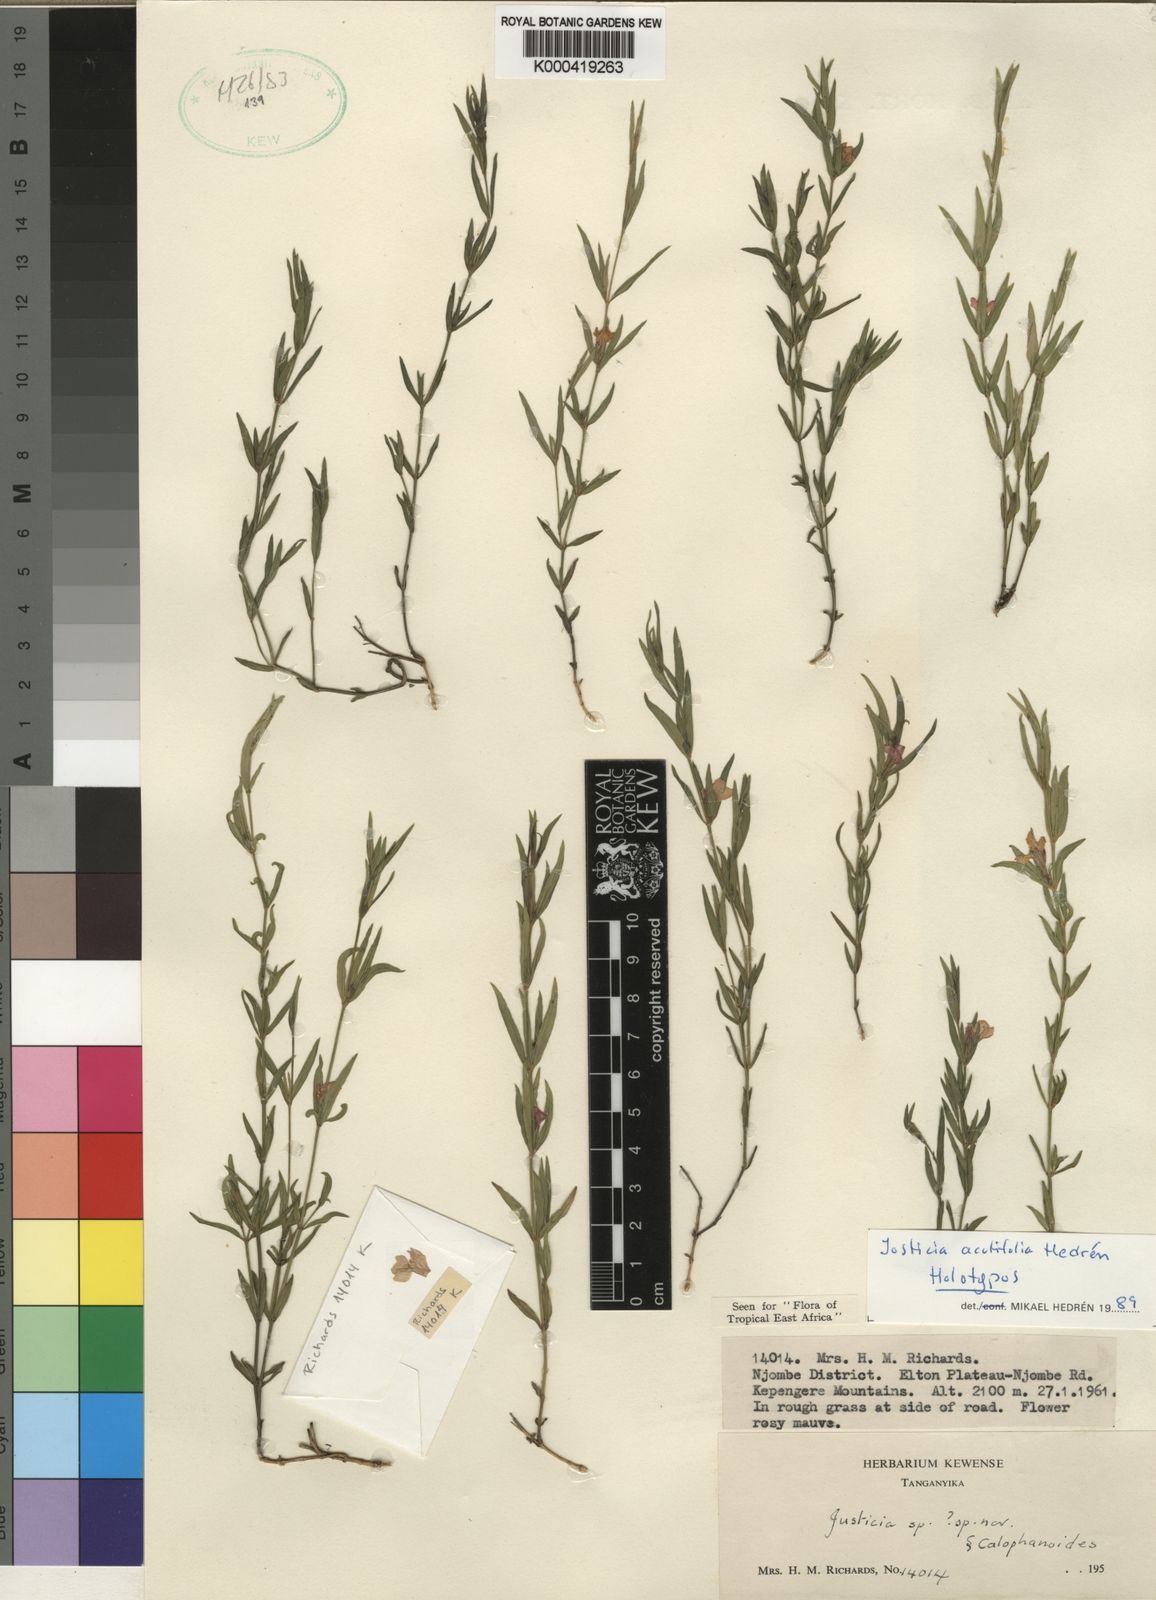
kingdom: Plantae
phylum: Tracheophyta
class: Magnoliopsida
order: Lamiales
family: Acanthaceae
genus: Justicia
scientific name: Justicia
